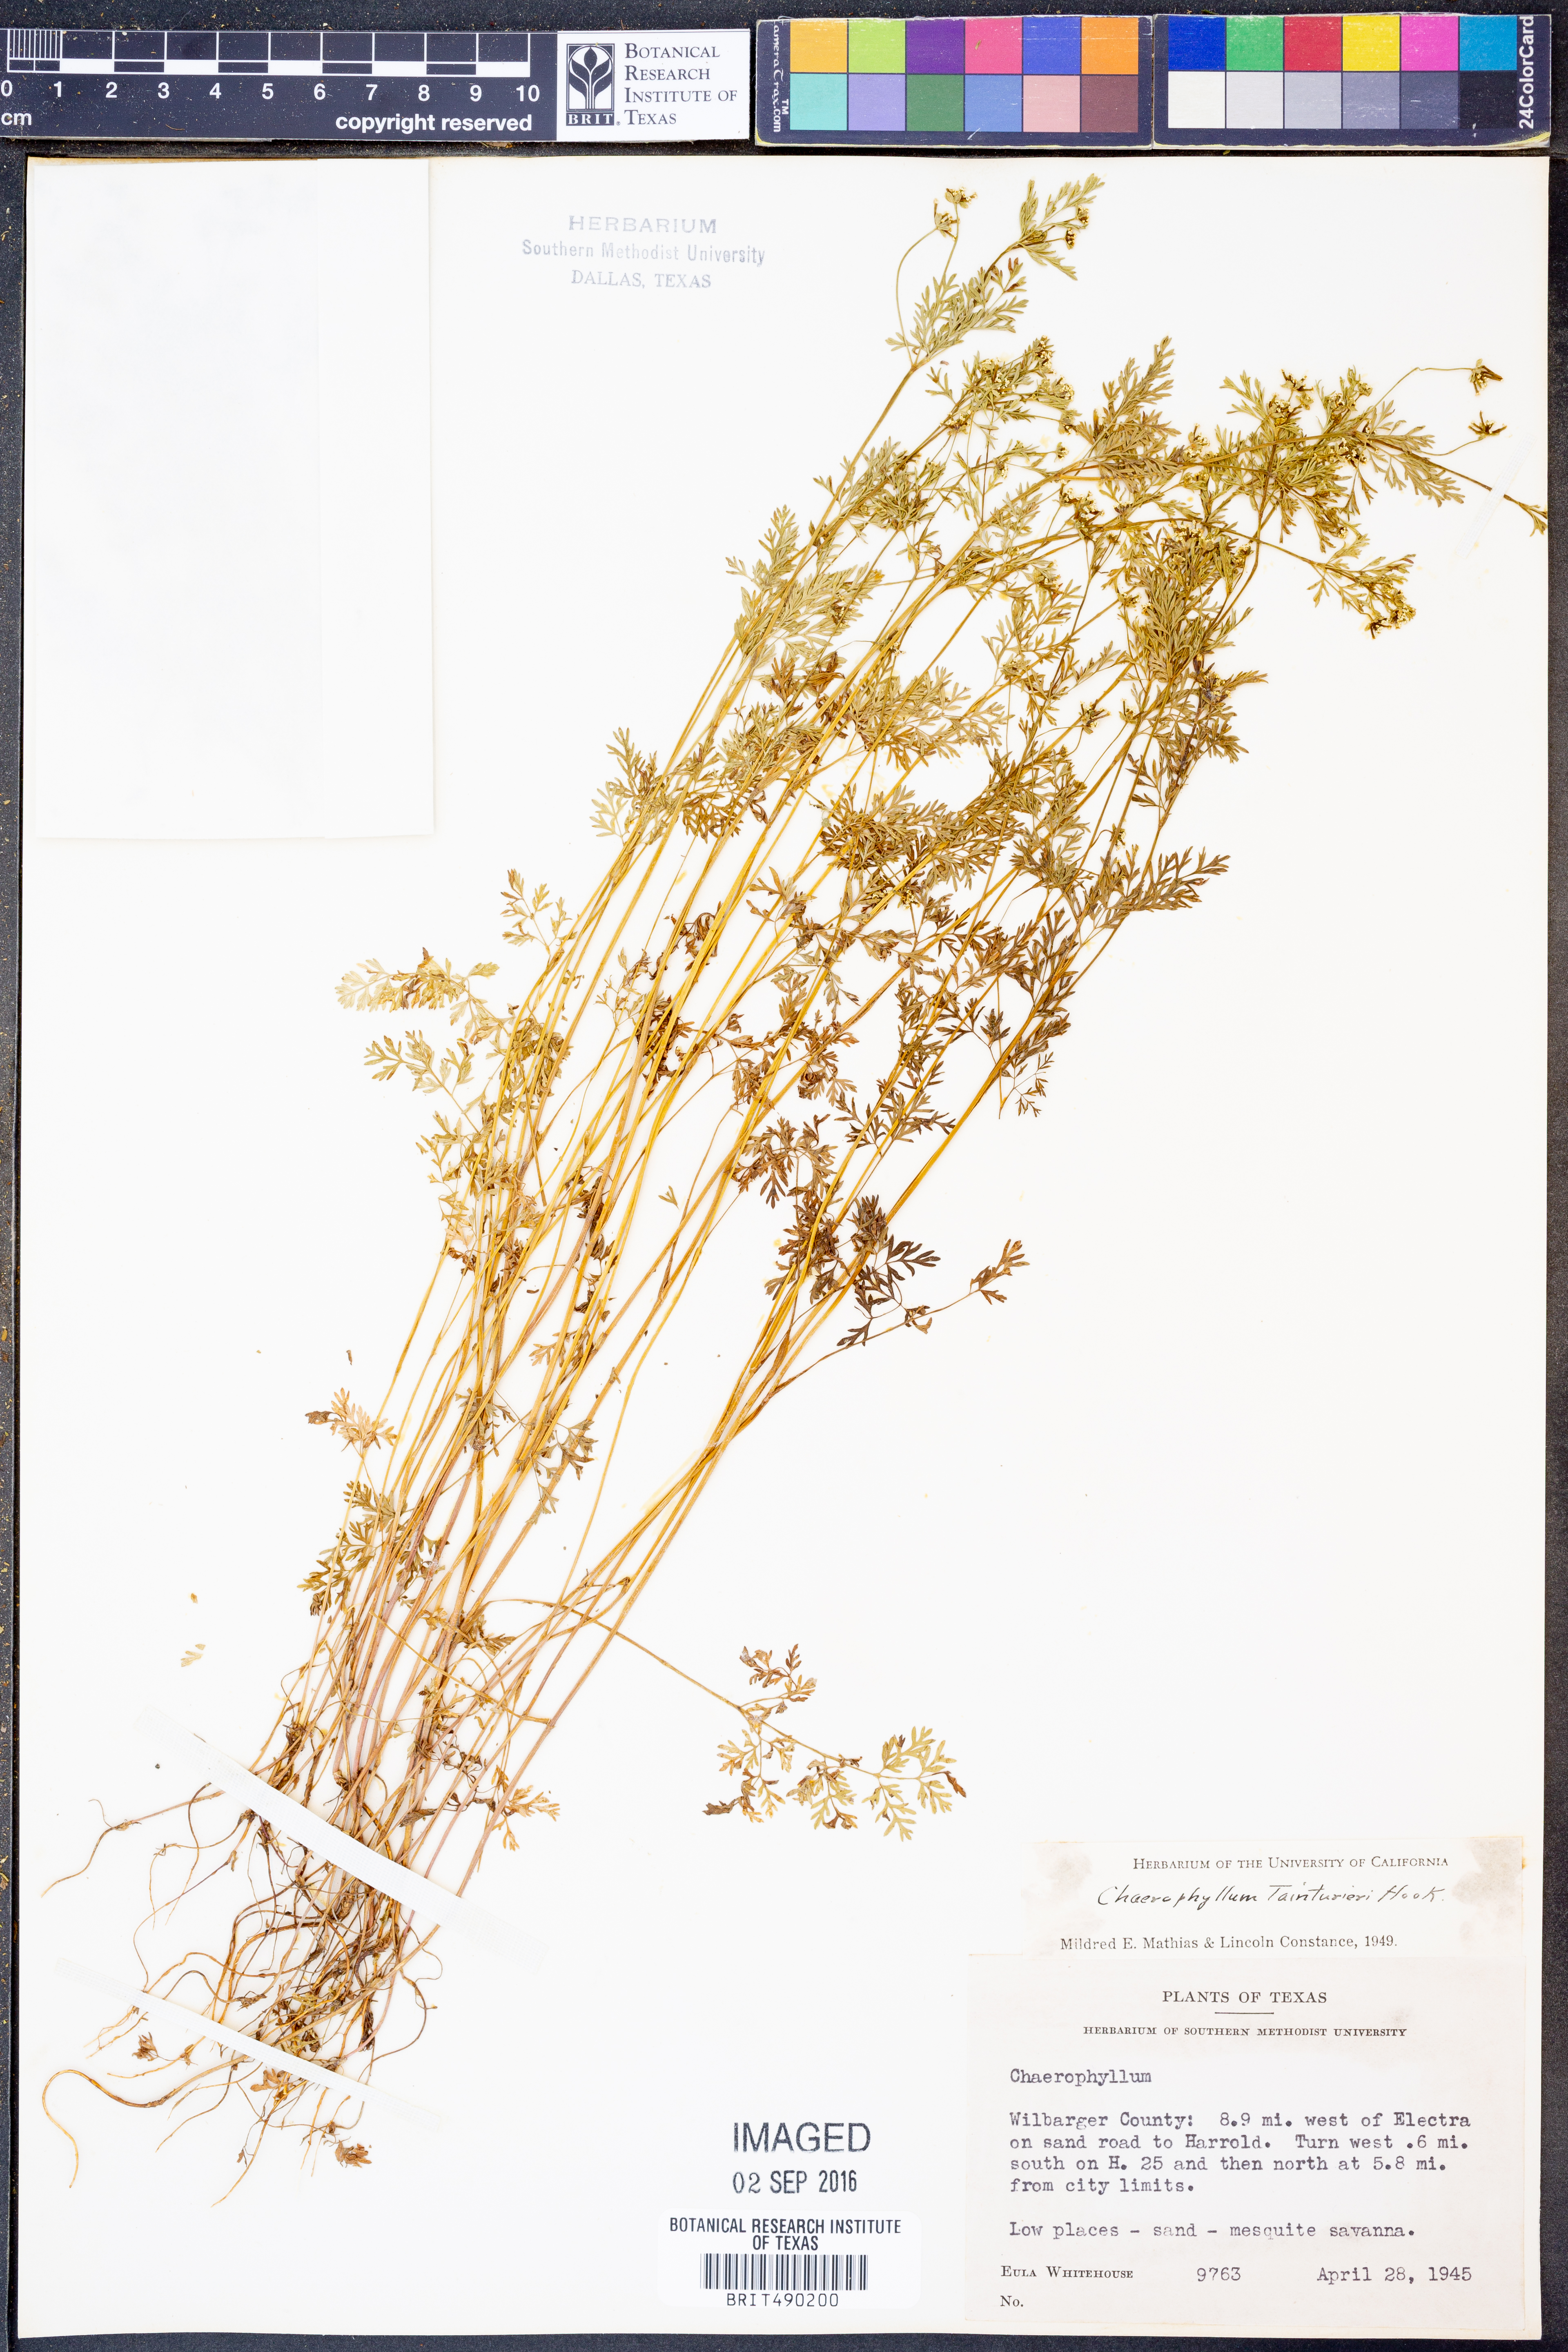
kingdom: Plantae
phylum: Tracheophyta
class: Magnoliopsida
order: Apiales
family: Apiaceae
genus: Chaerophyllum
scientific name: Chaerophyllum tainturieri
